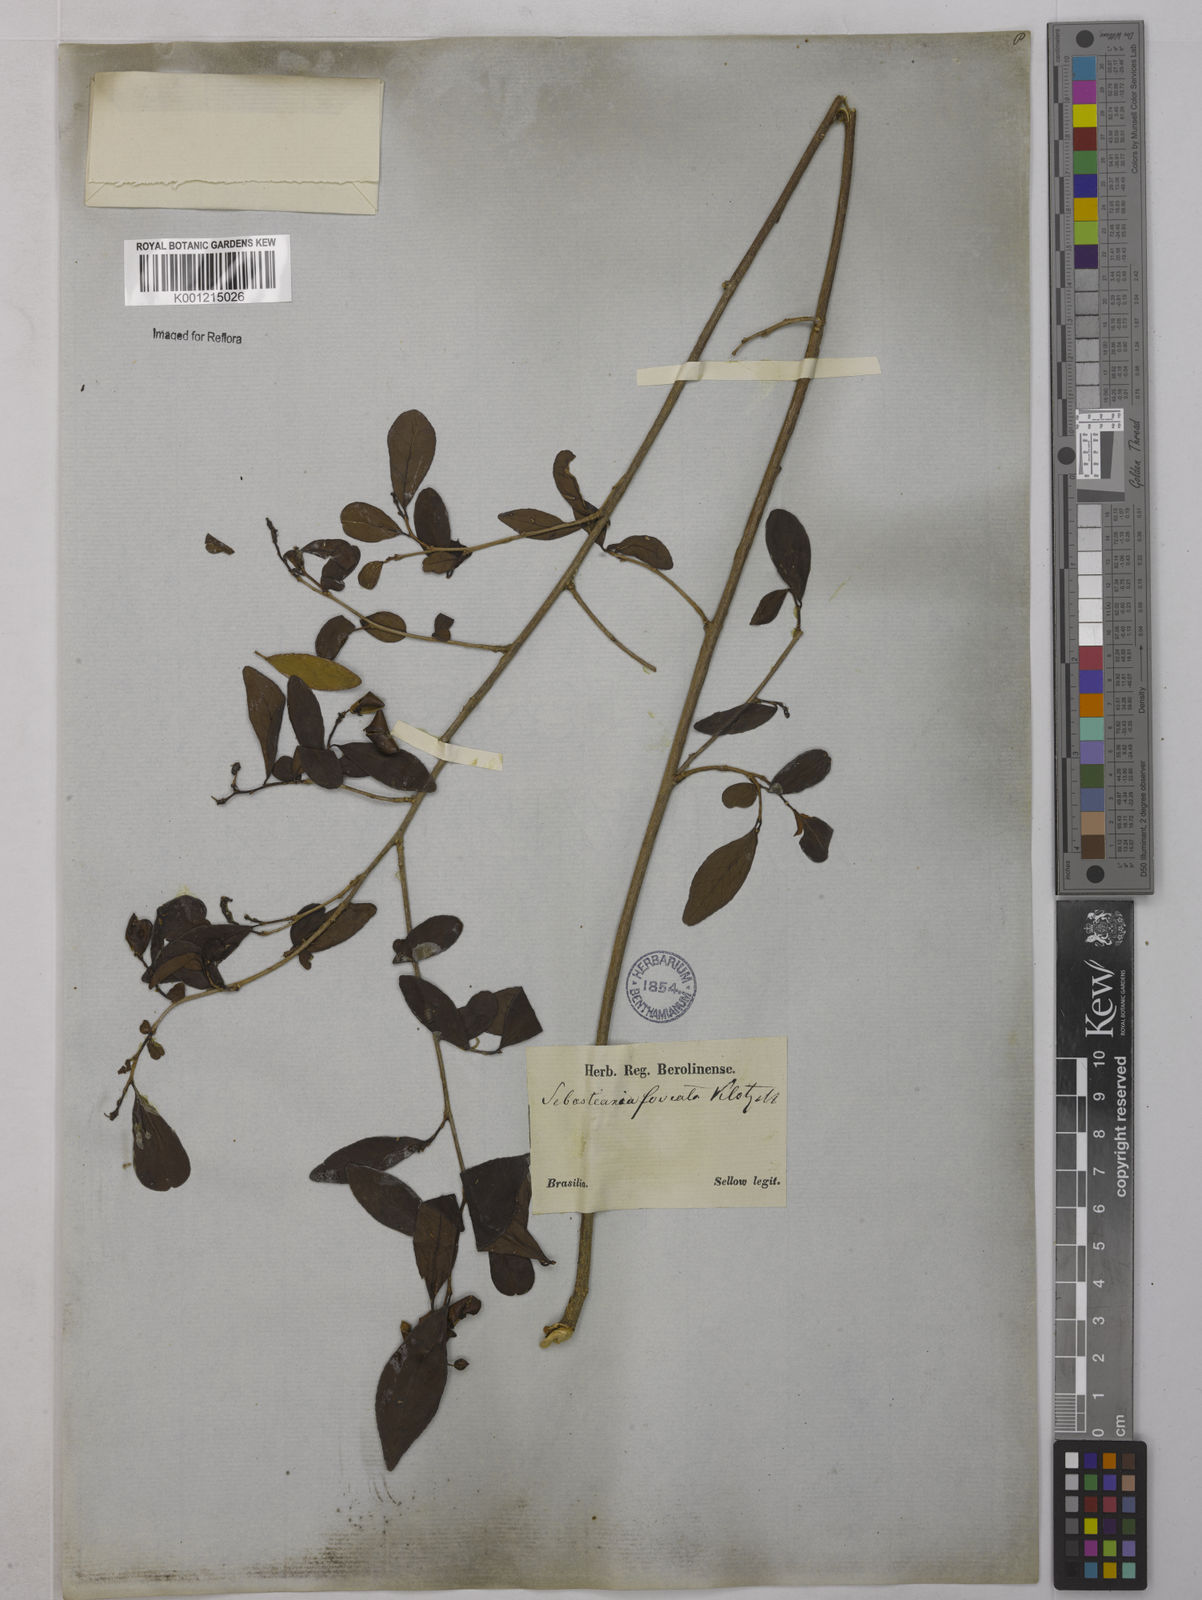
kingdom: Plantae
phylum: Tracheophyta
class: Magnoliopsida
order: Malpighiales
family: Euphorbiaceae
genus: Sebastiania
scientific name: Sebastiania brasiliensis
